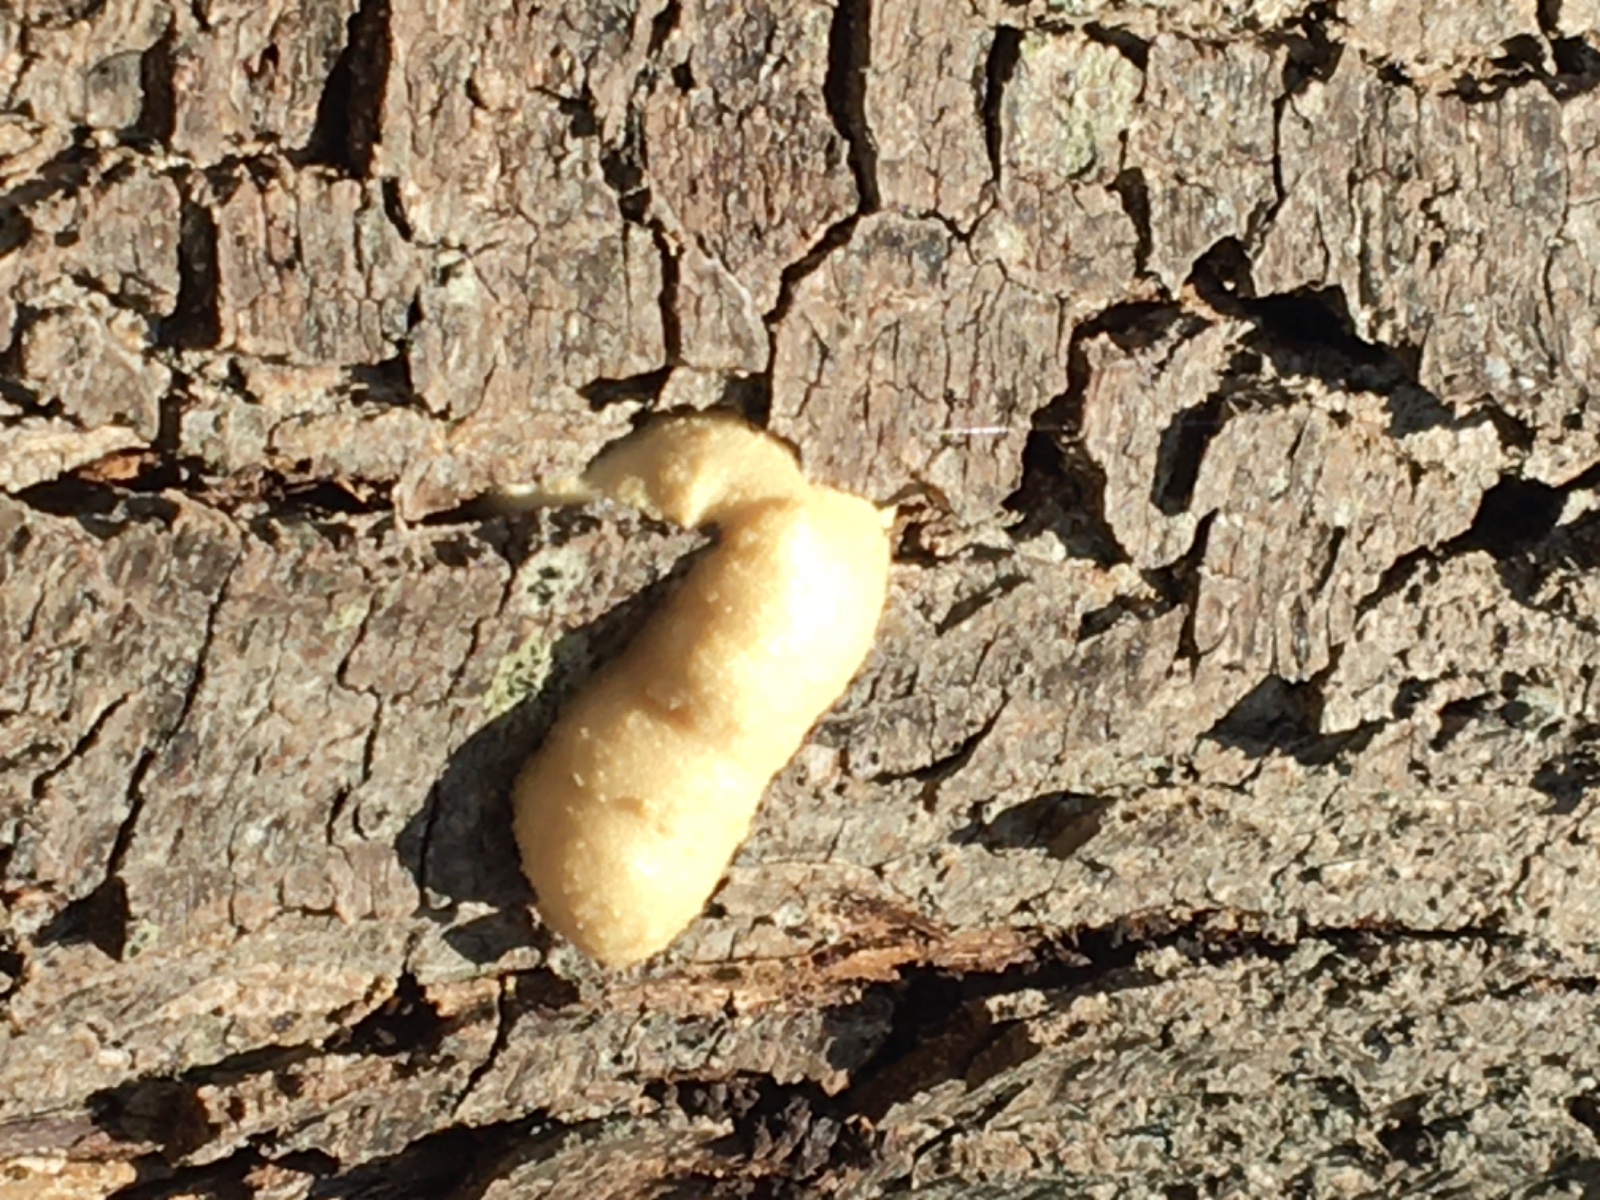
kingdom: Protozoa
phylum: Mycetozoa
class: Myxomycetes
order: Cribrariales
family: Tubiferaceae
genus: Reticularia
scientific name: Reticularia lycoperdon
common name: skinnende støvpude
